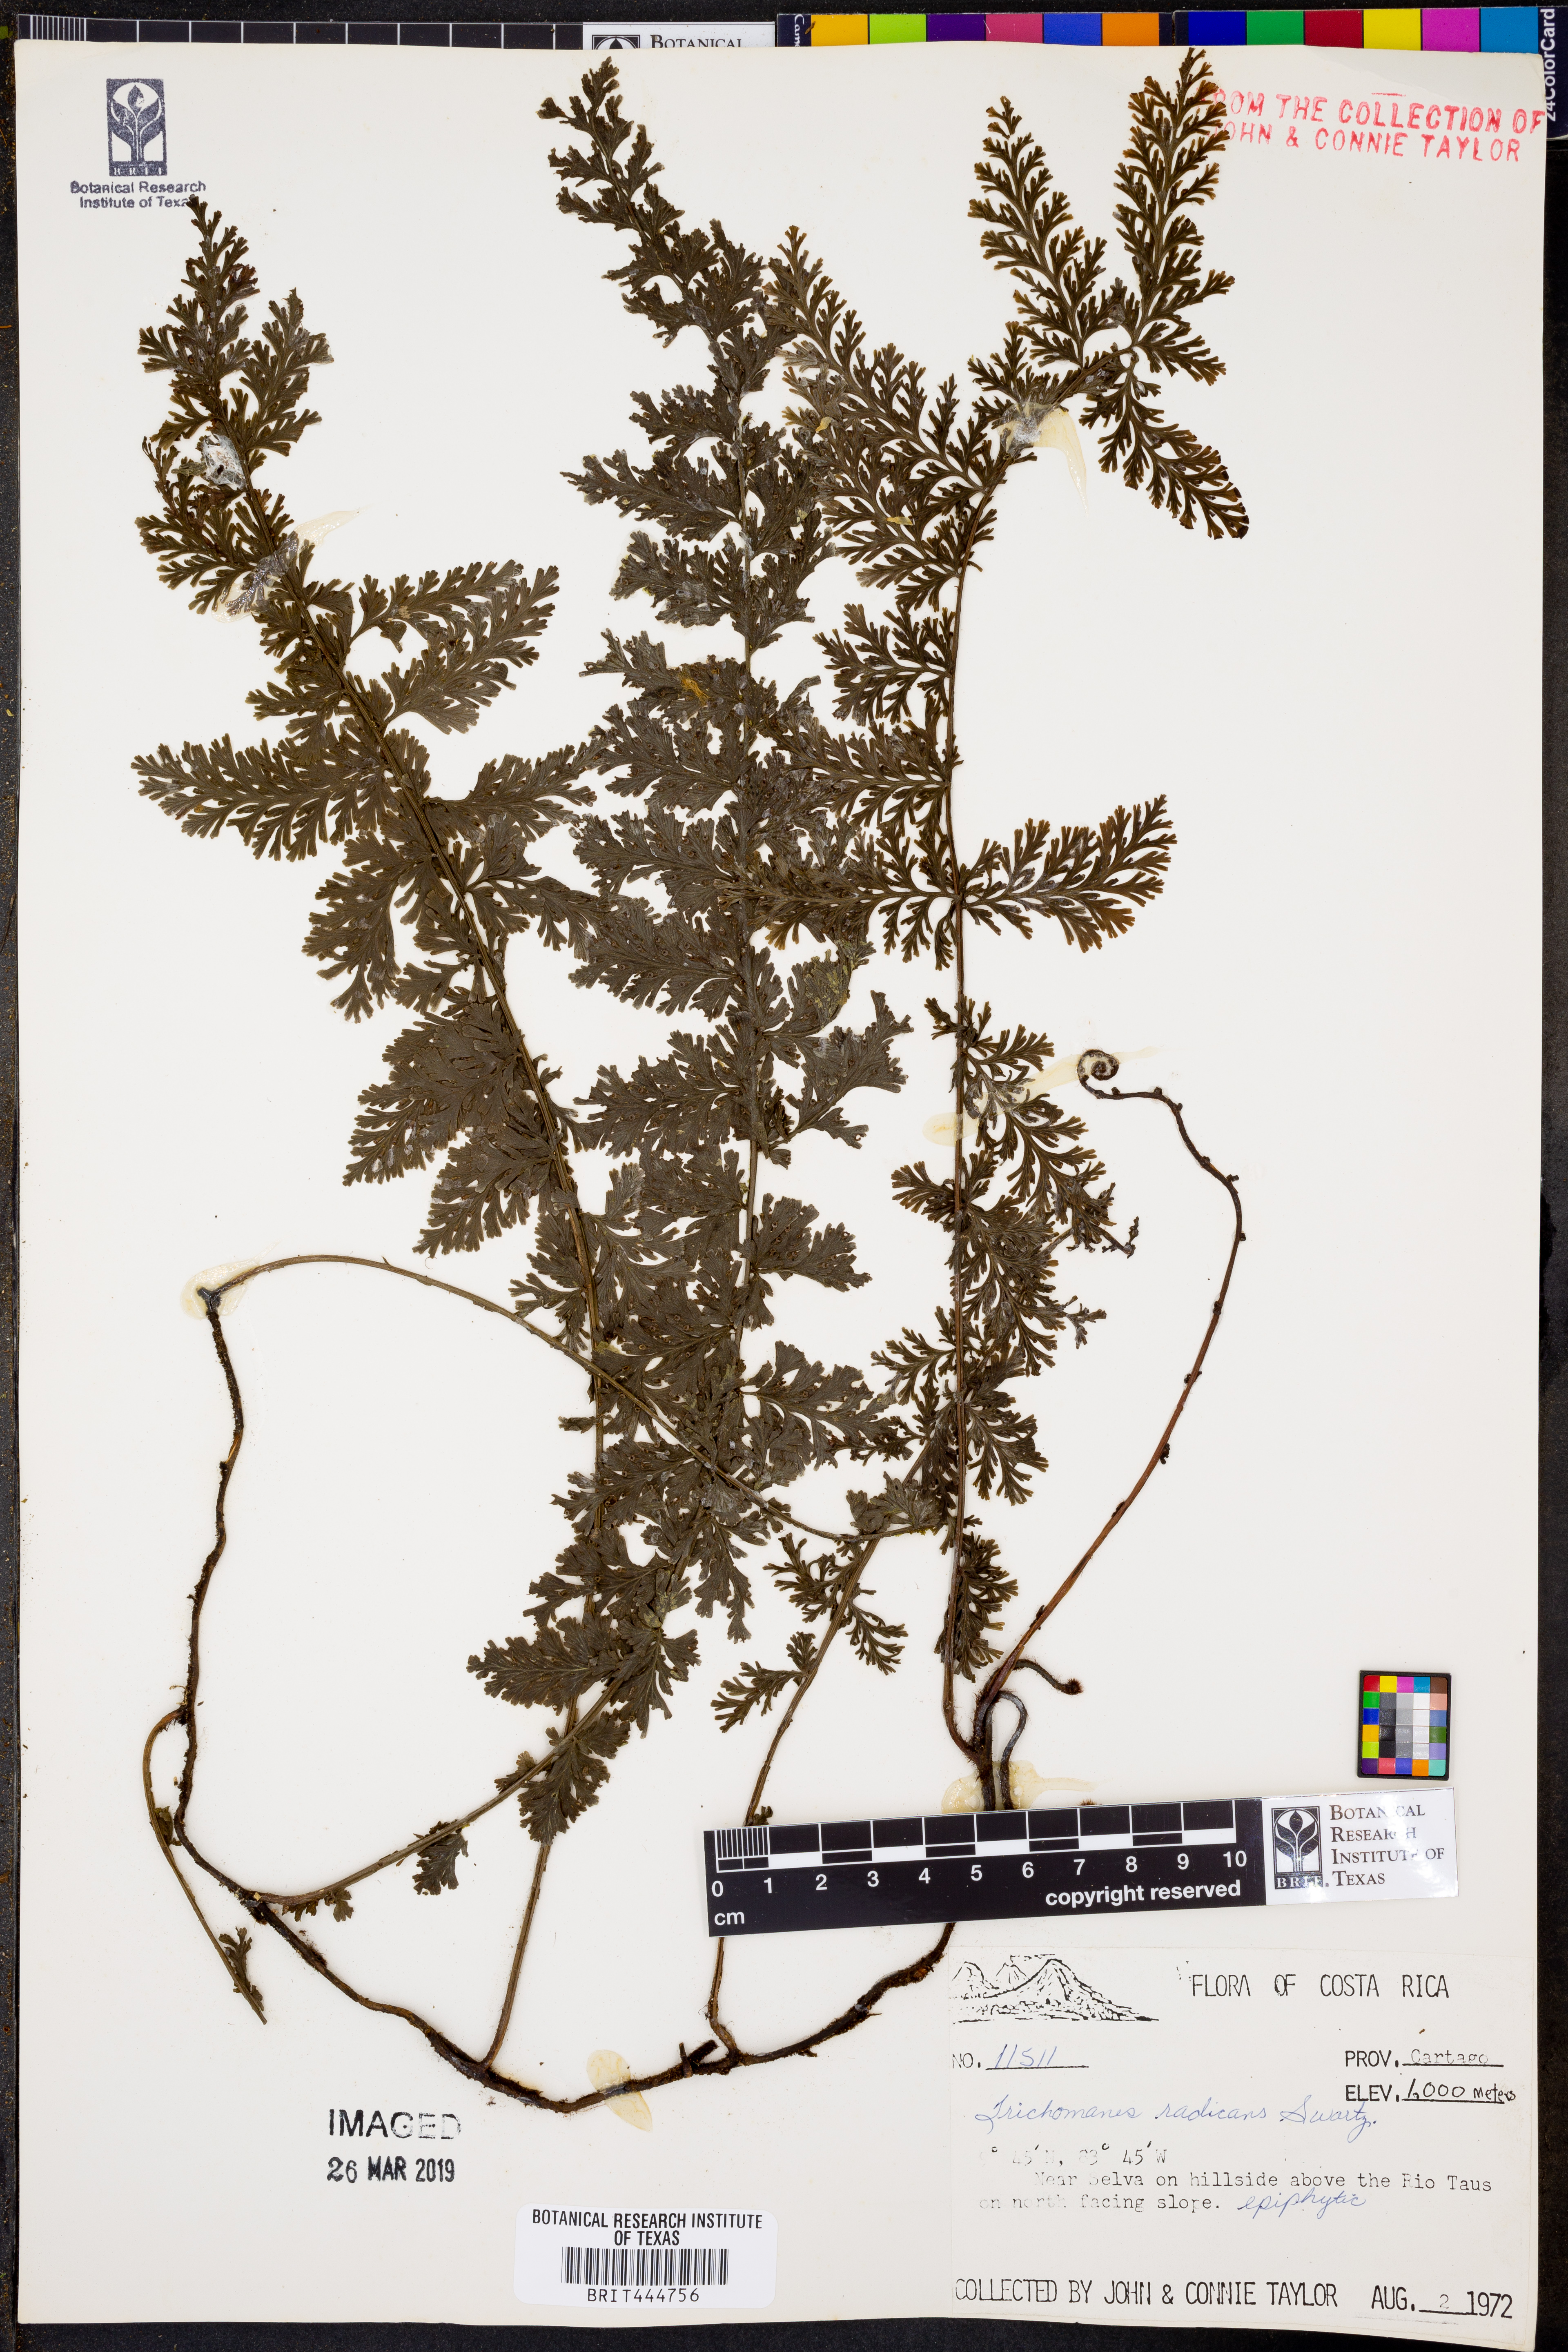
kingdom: Plantae
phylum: Tracheophyta
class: Polypodiopsida
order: Hymenophyllales
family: Hymenophyllaceae
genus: Vandenboschia
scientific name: Vandenboschia radicans
